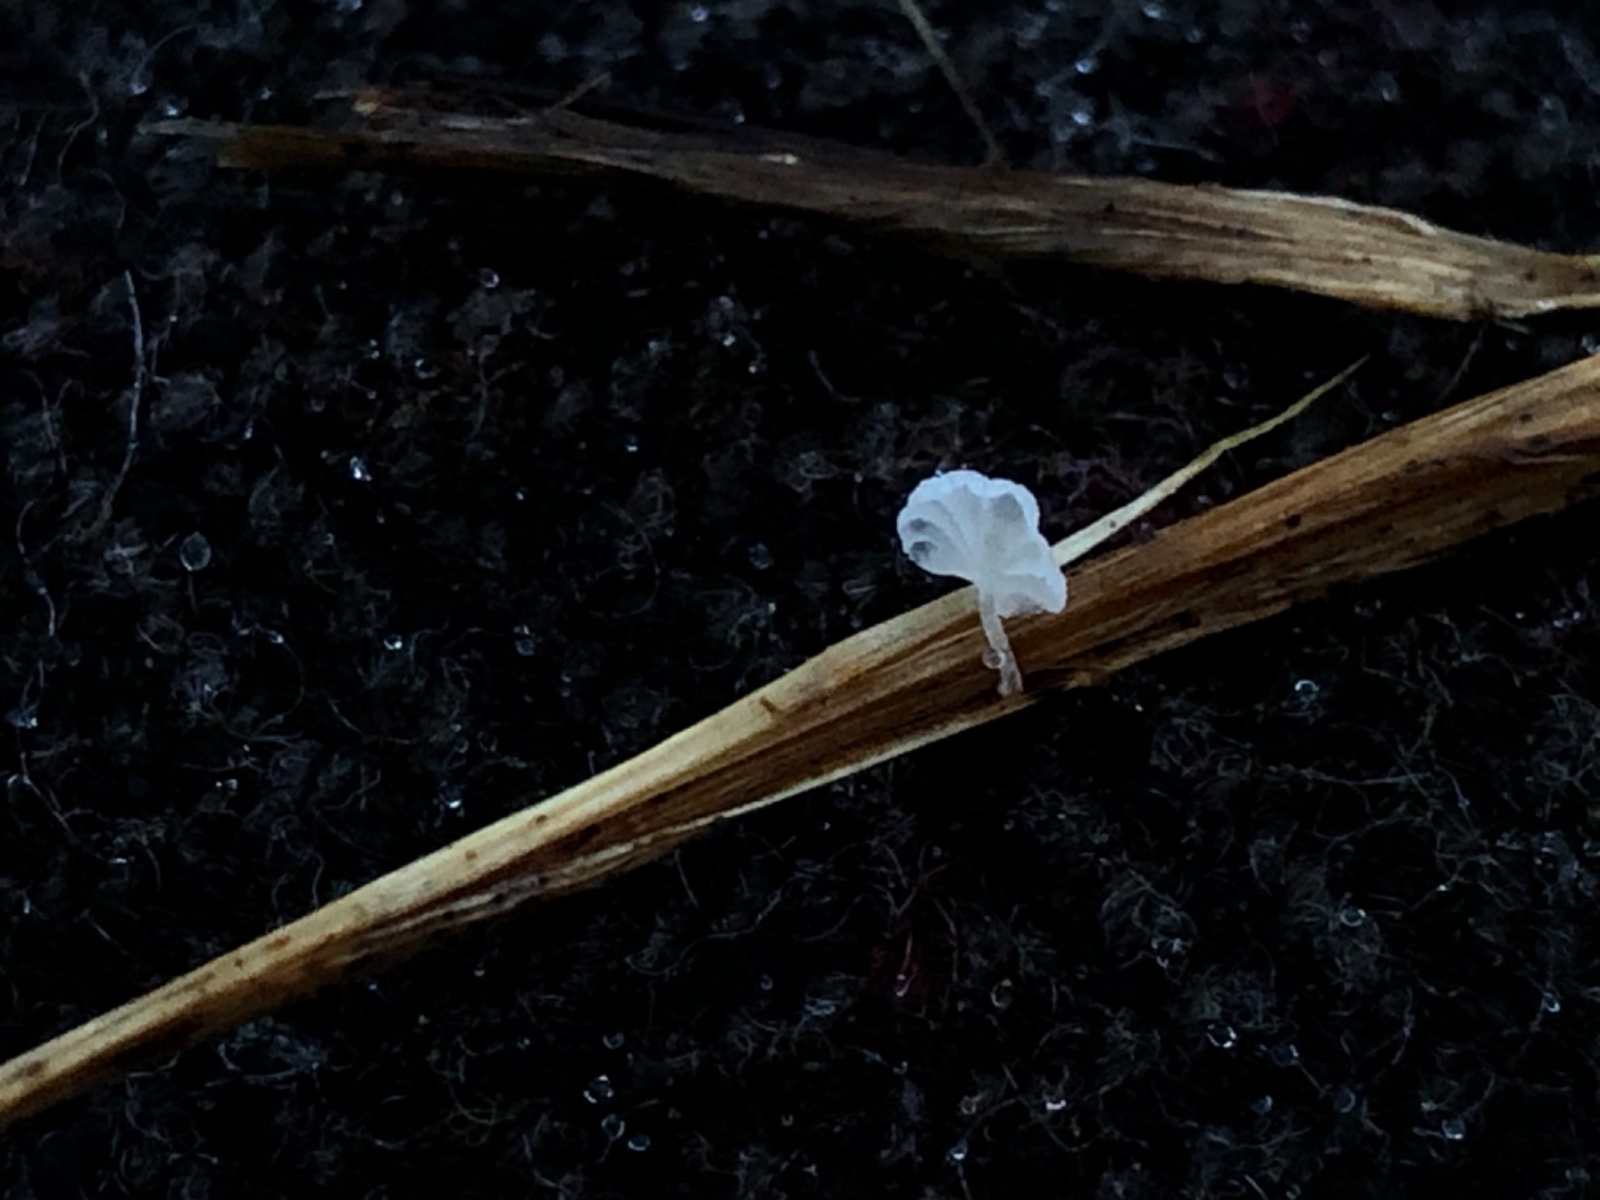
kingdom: Fungi
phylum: Basidiomycota
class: Agaricomycetes
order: Agaricales
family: Mycenaceae
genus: Resinomycena
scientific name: Resinomycena saccharifera
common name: sukkerhat
